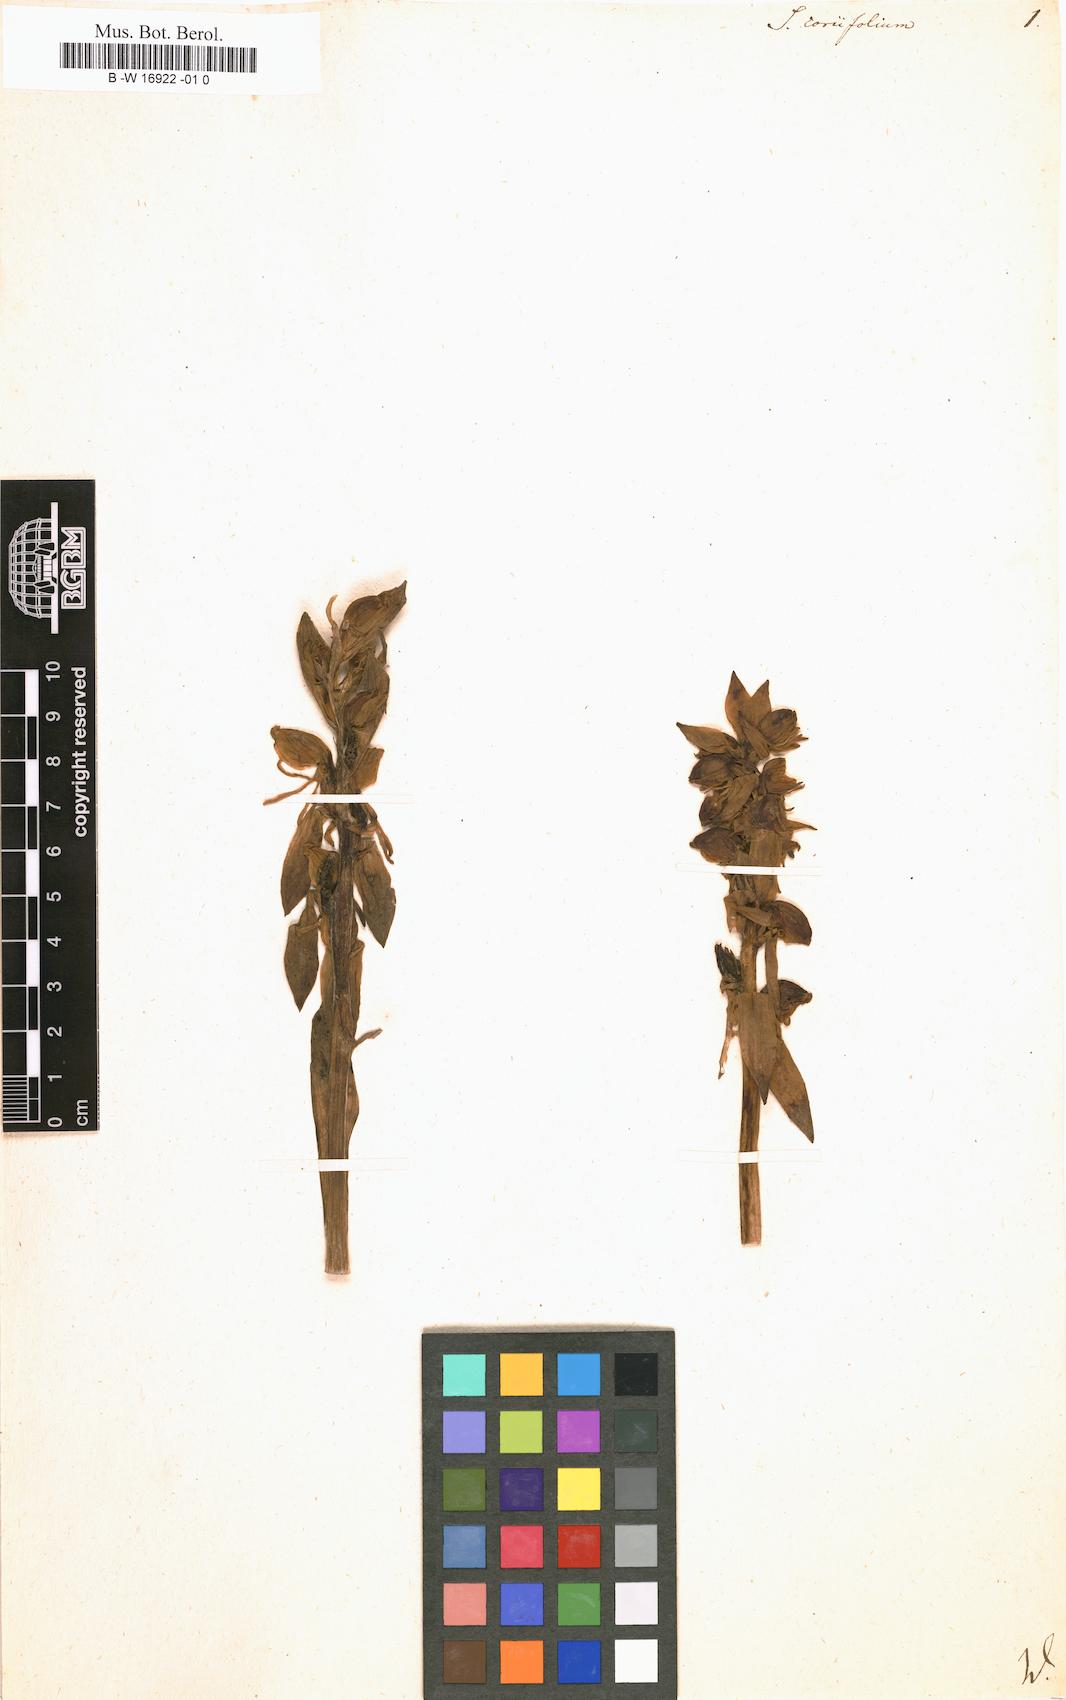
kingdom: Plantae
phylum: Tracheophyta
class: Liliopsida
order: Asparagales
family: Orchidaceae
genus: Satyrium
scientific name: Satyrium coriifolium
